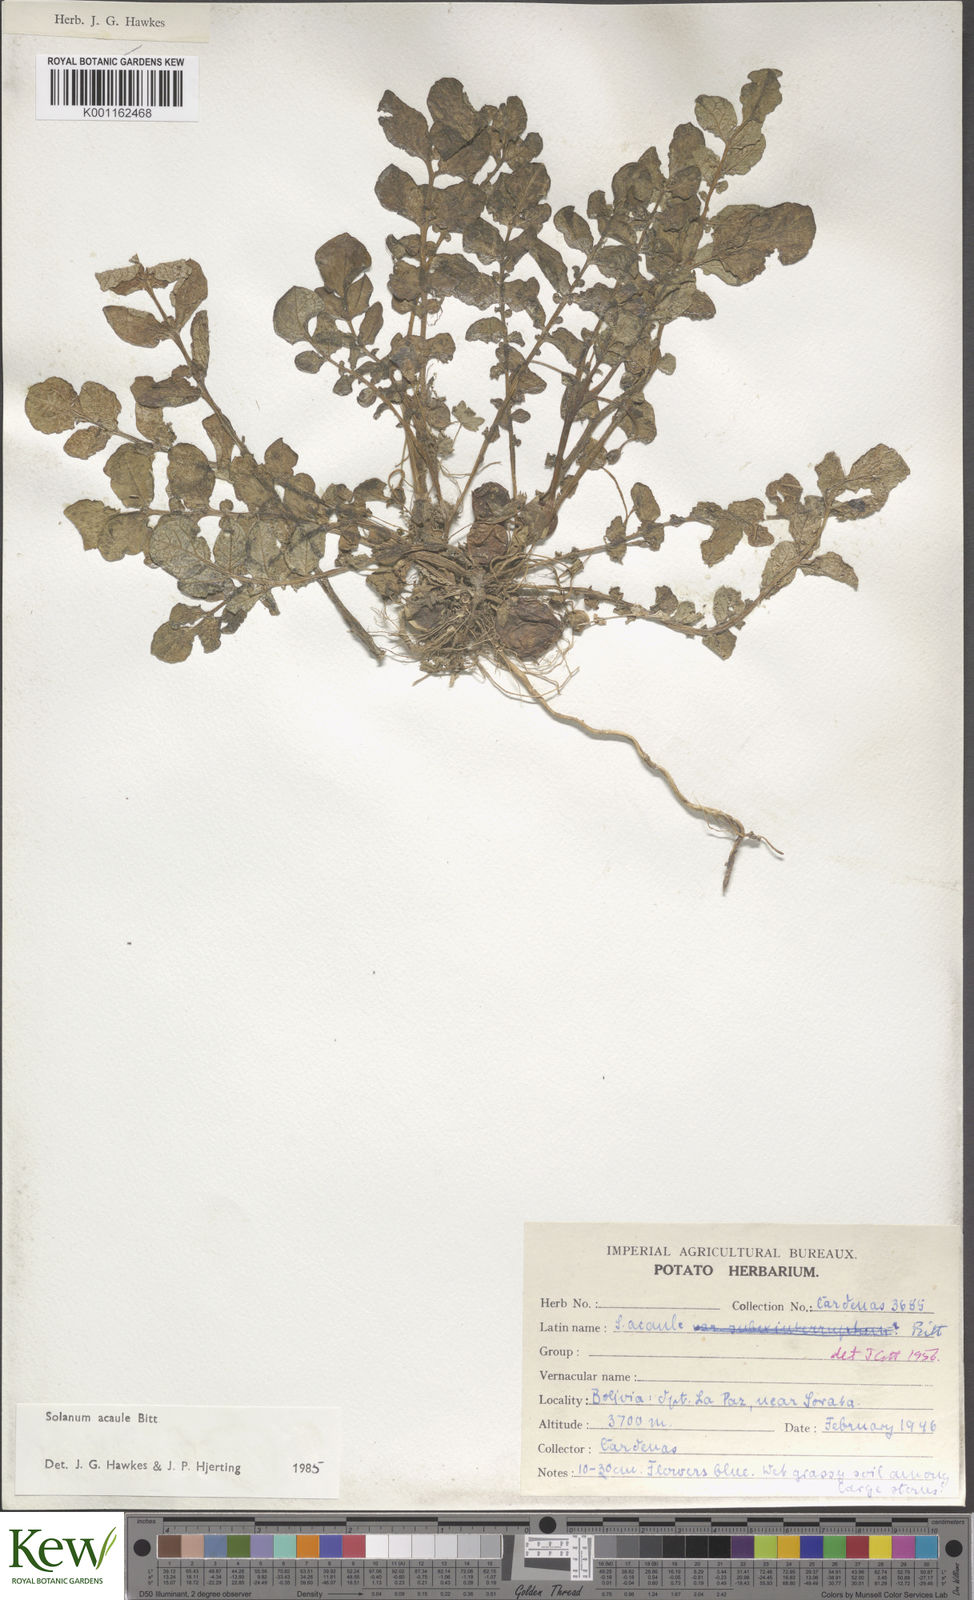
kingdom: Plantae
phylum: Tracheophyta
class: Magnoliopsida
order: Solanales
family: Solanaceae
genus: Solanum
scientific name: Solanum acaule
